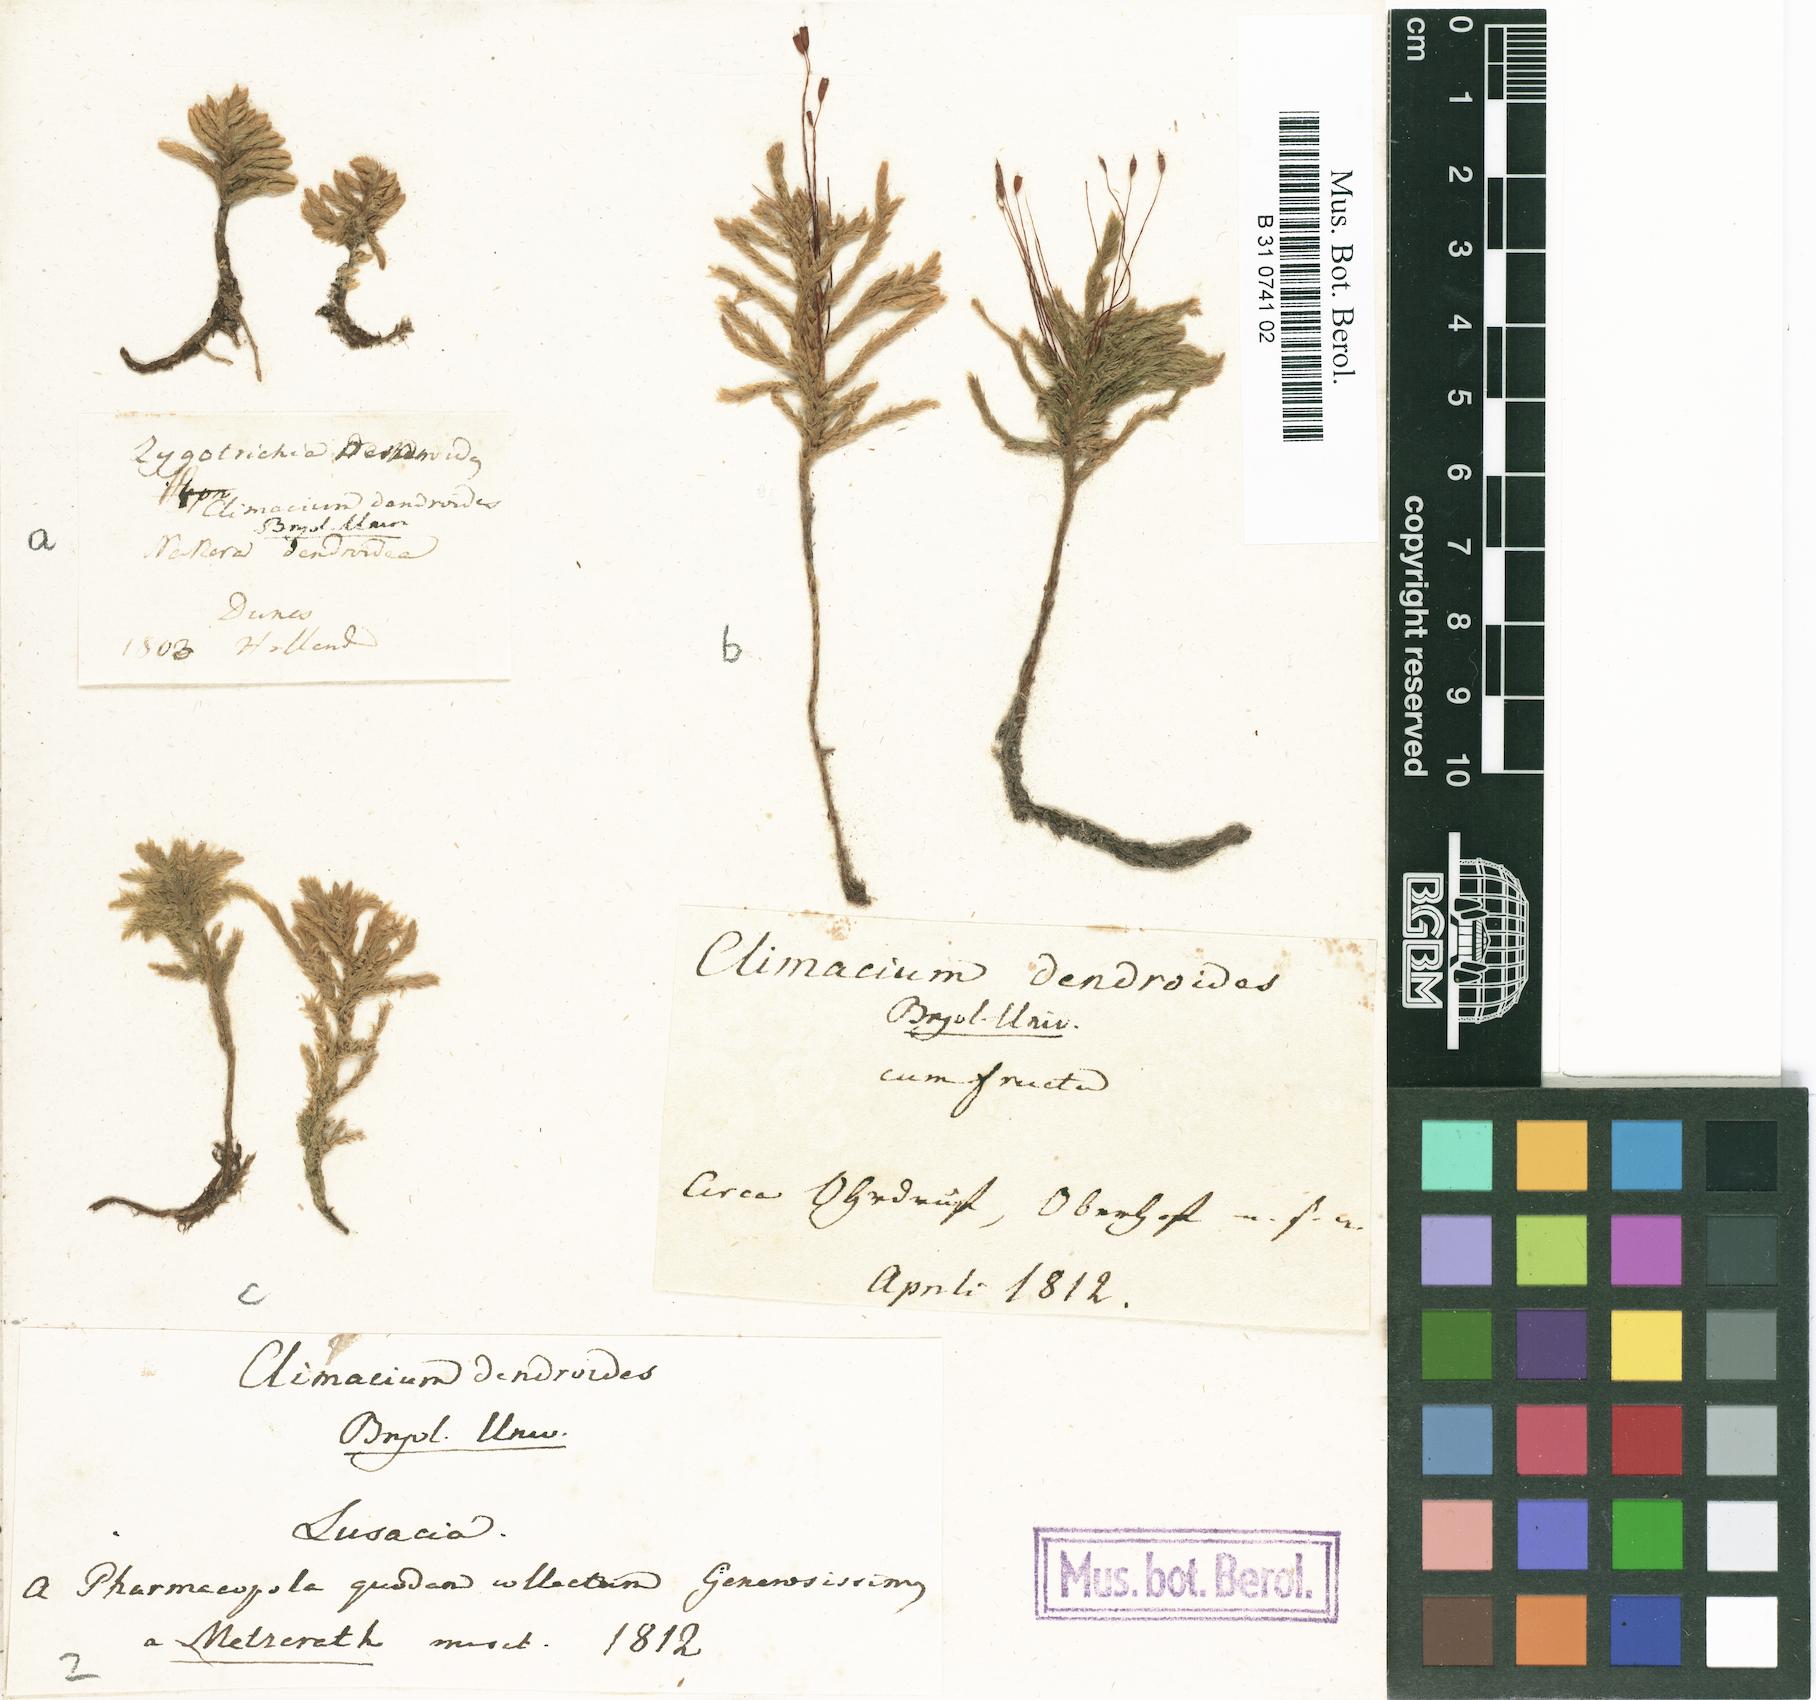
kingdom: Plantae
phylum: Bryophyta
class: Bryopsida
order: Hypnales
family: Climaciaceae
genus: Climacium
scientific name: Climacium dendroides
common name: Northern tree moss
